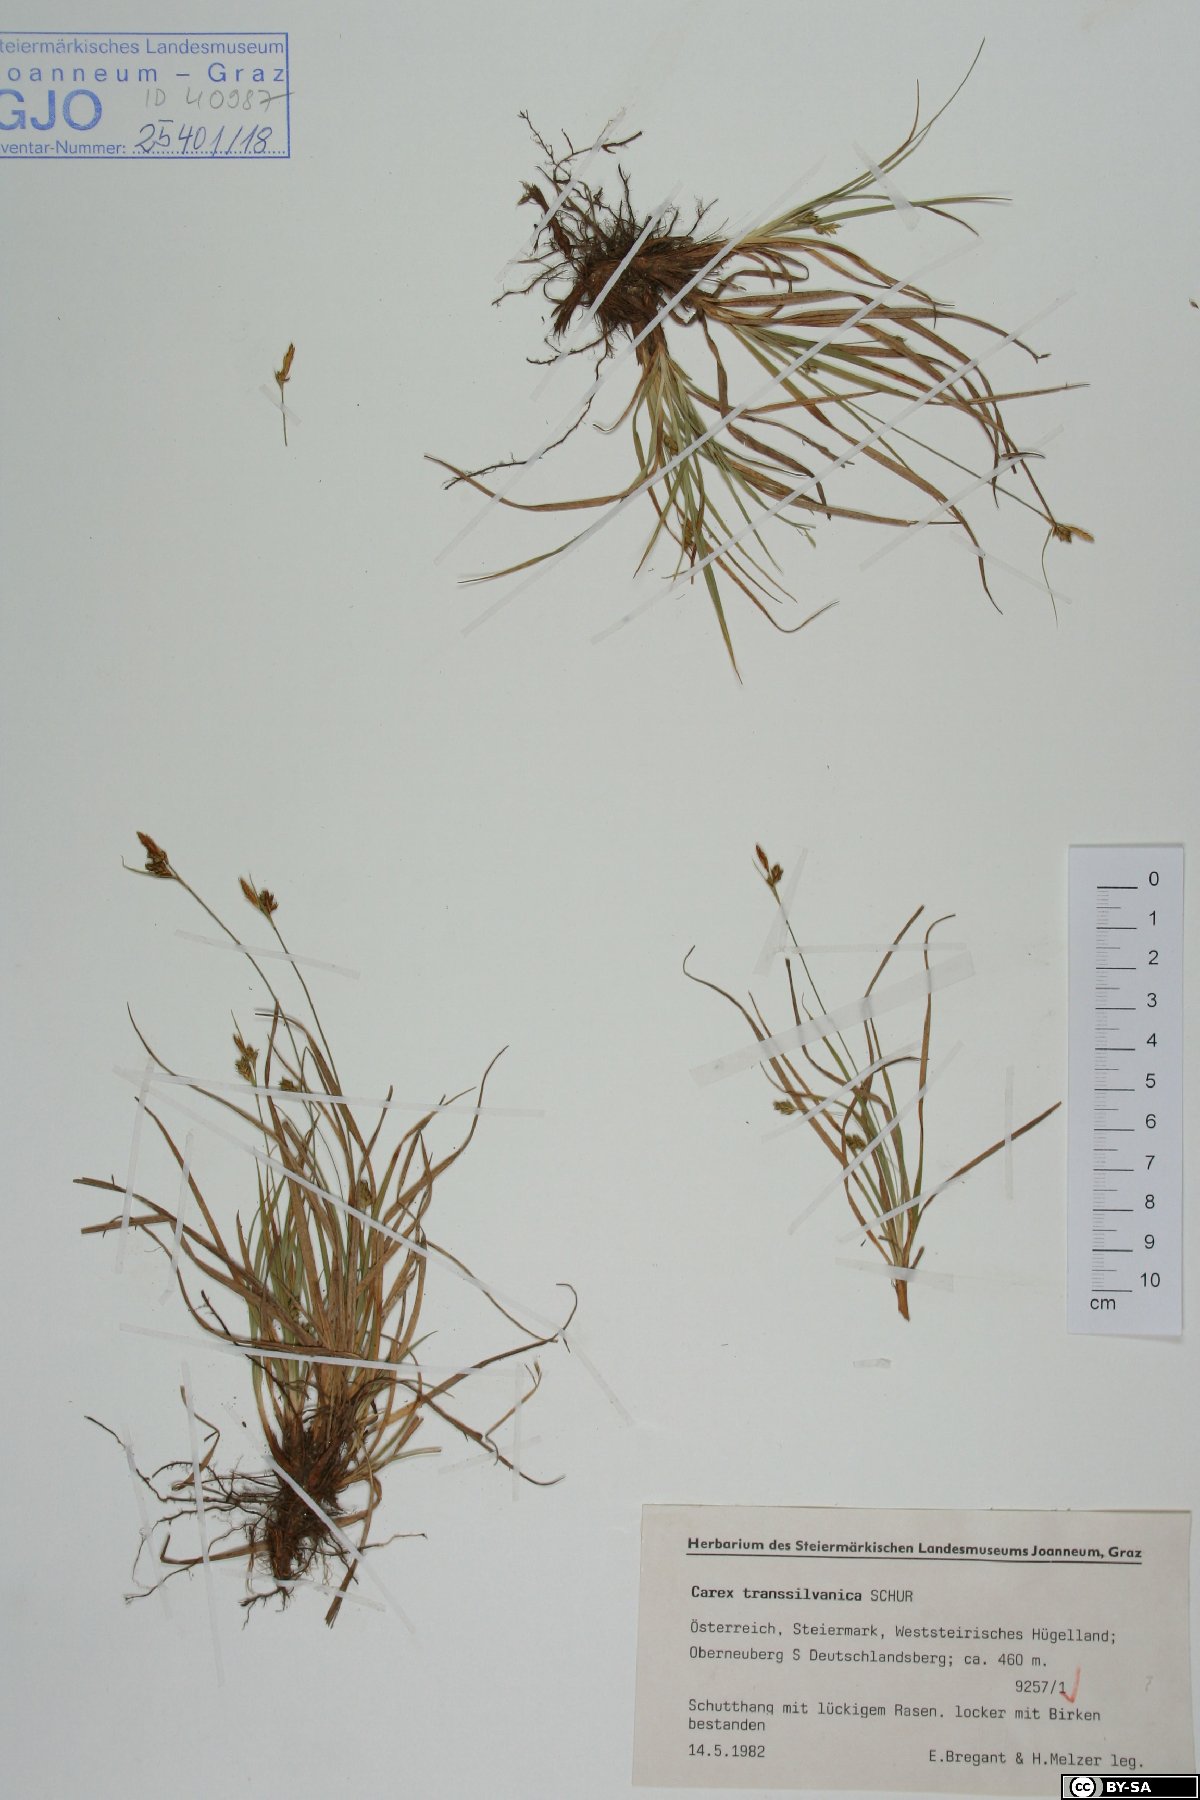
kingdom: Plantae
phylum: Tracheophyta
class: Liliopsida
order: Poales
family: Cyperaceae
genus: Carex
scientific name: Carex depressa
